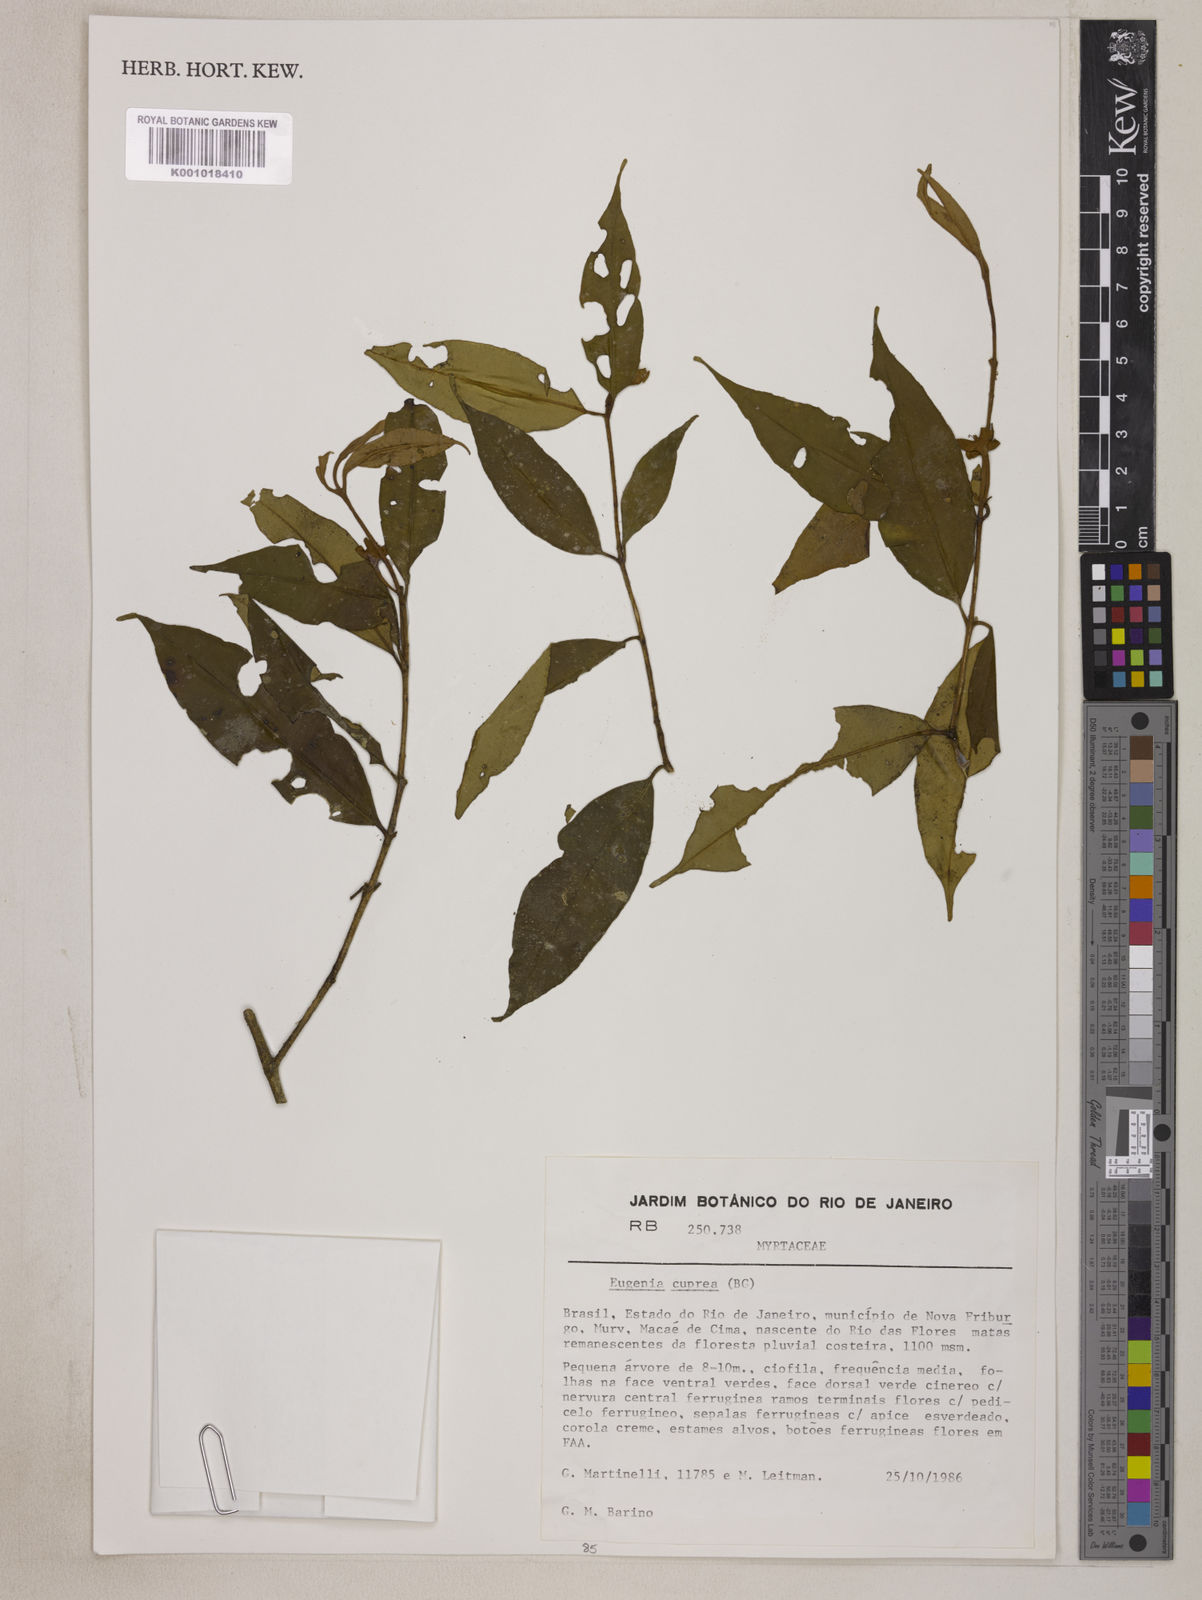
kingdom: Plantae
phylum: Tracheophyta
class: Magnoliopsida
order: Myrtales
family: Myrtaceae
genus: Eugenia
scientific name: Eugenia cuprea
